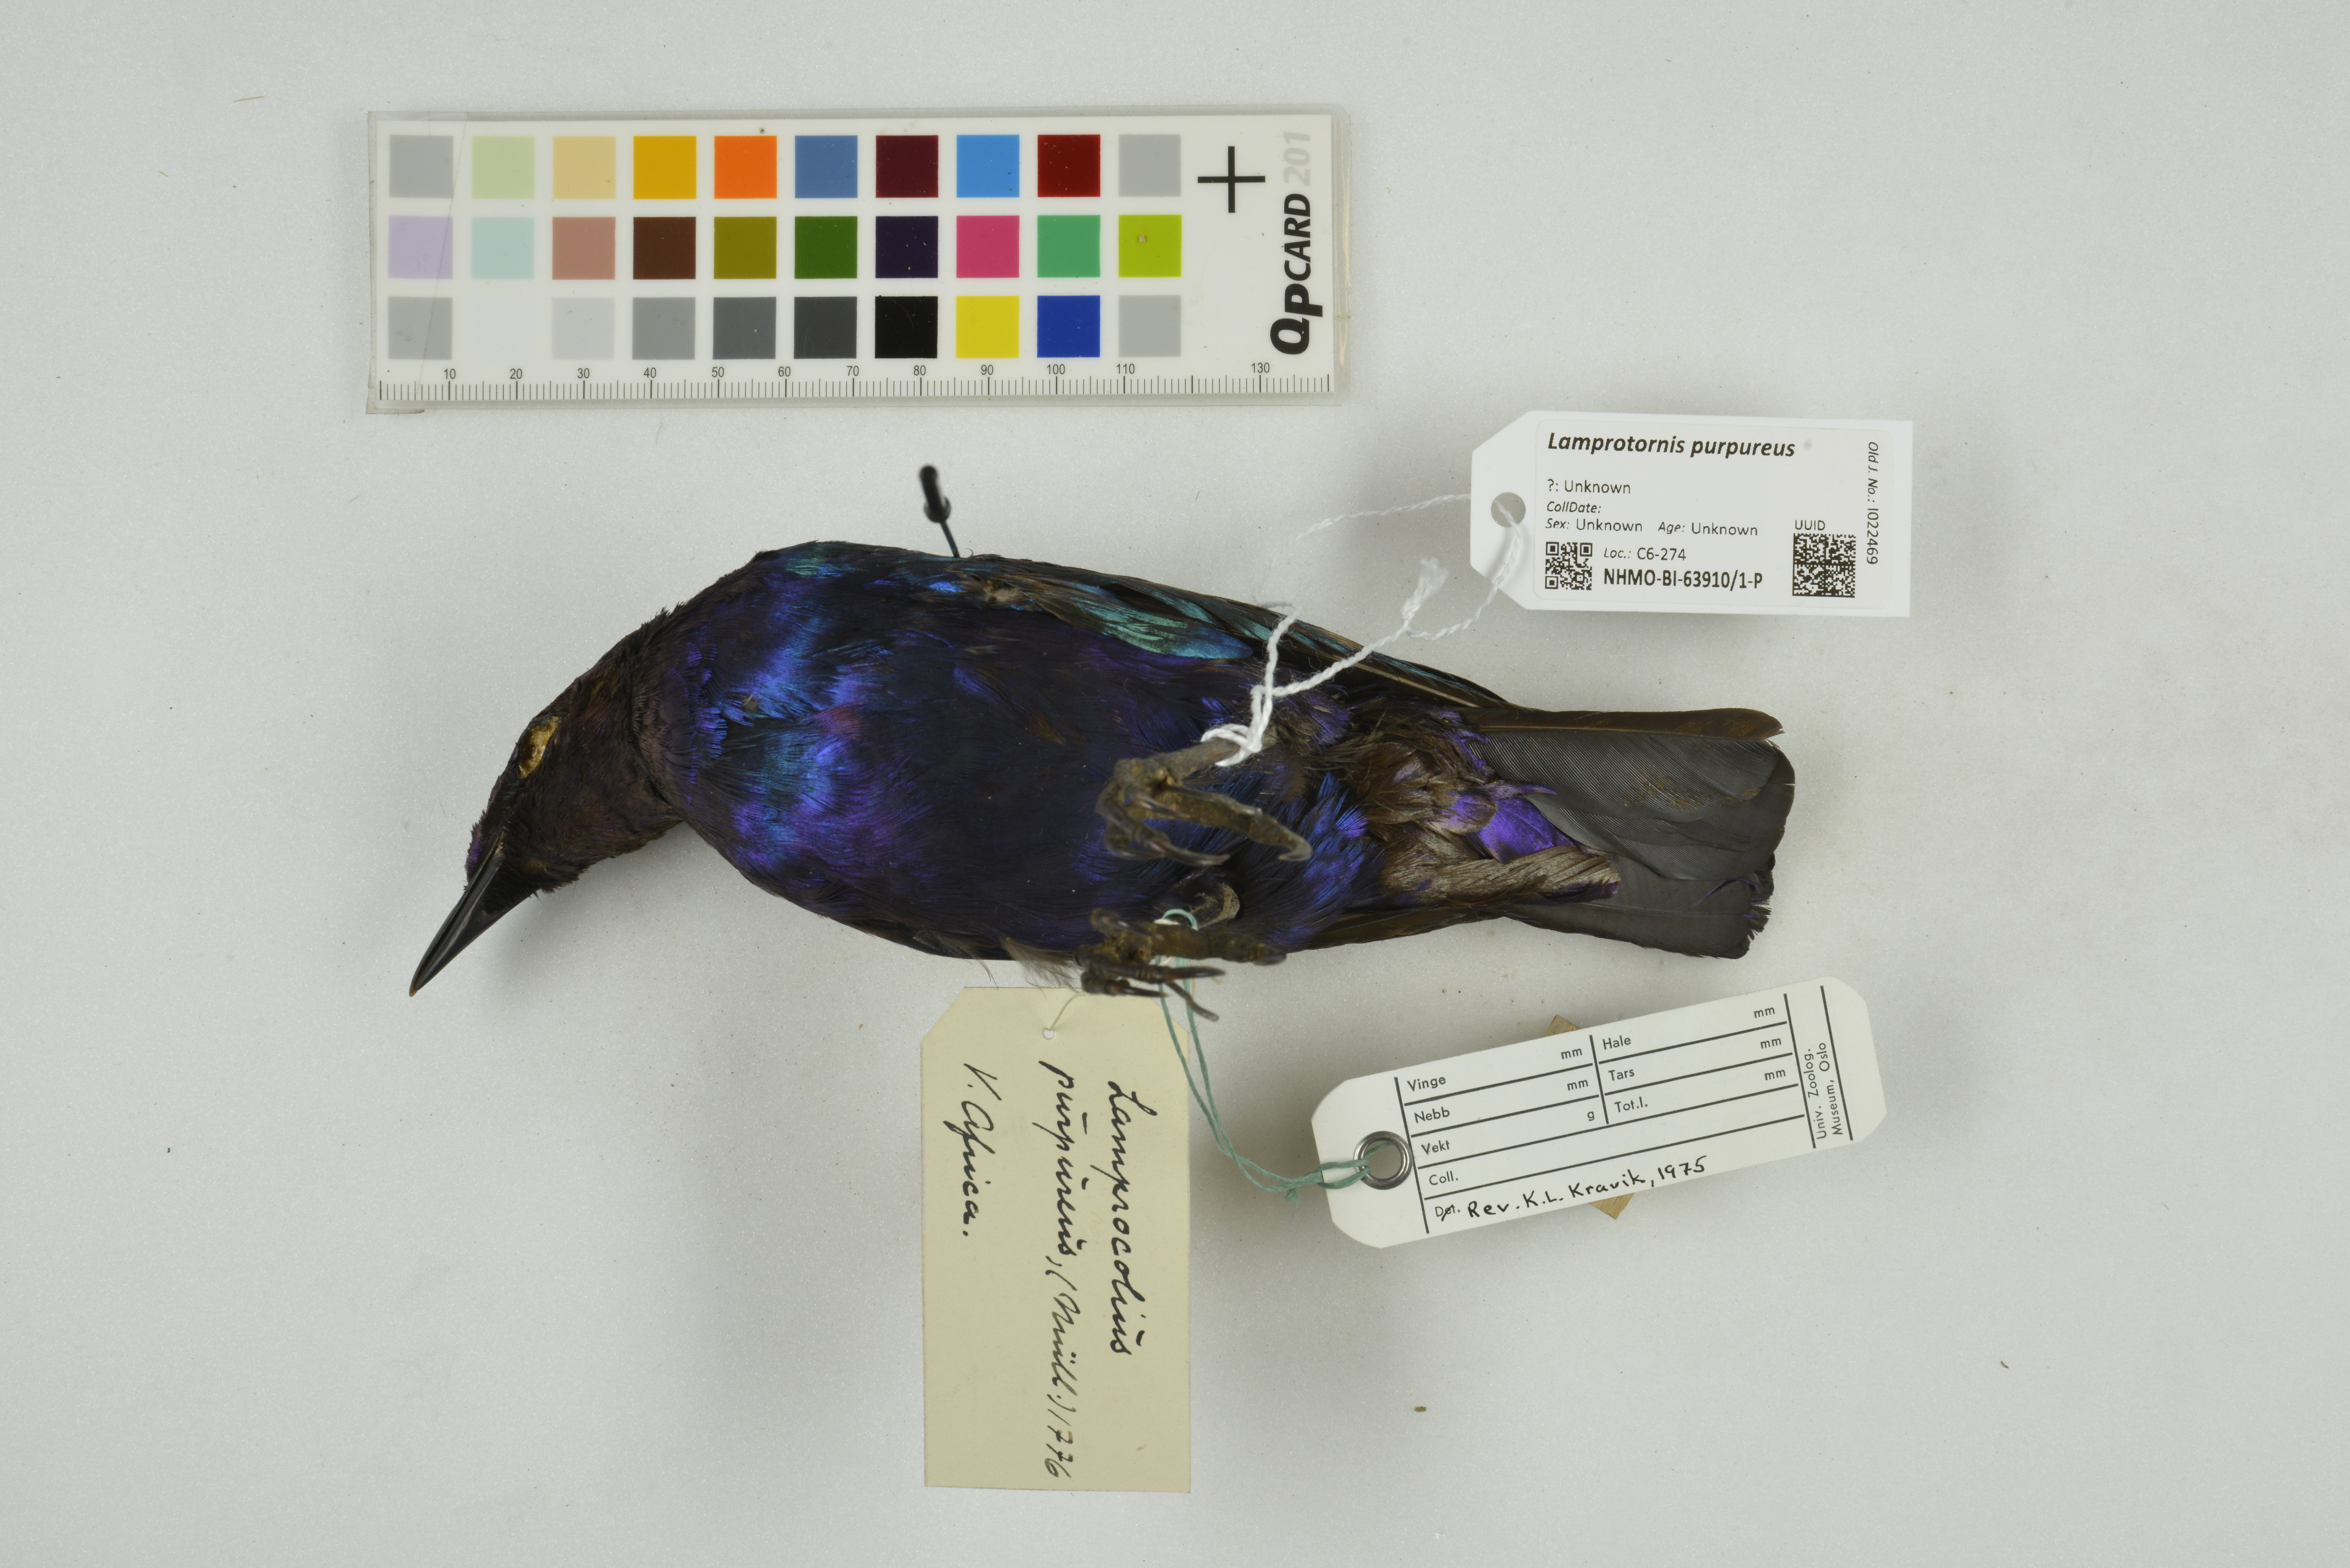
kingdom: Animalia
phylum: Chordata
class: Aves
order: Passeriformes
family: Sturnidae
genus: Lamprotornis
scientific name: Lamprotornis purpureus
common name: Purple starling
